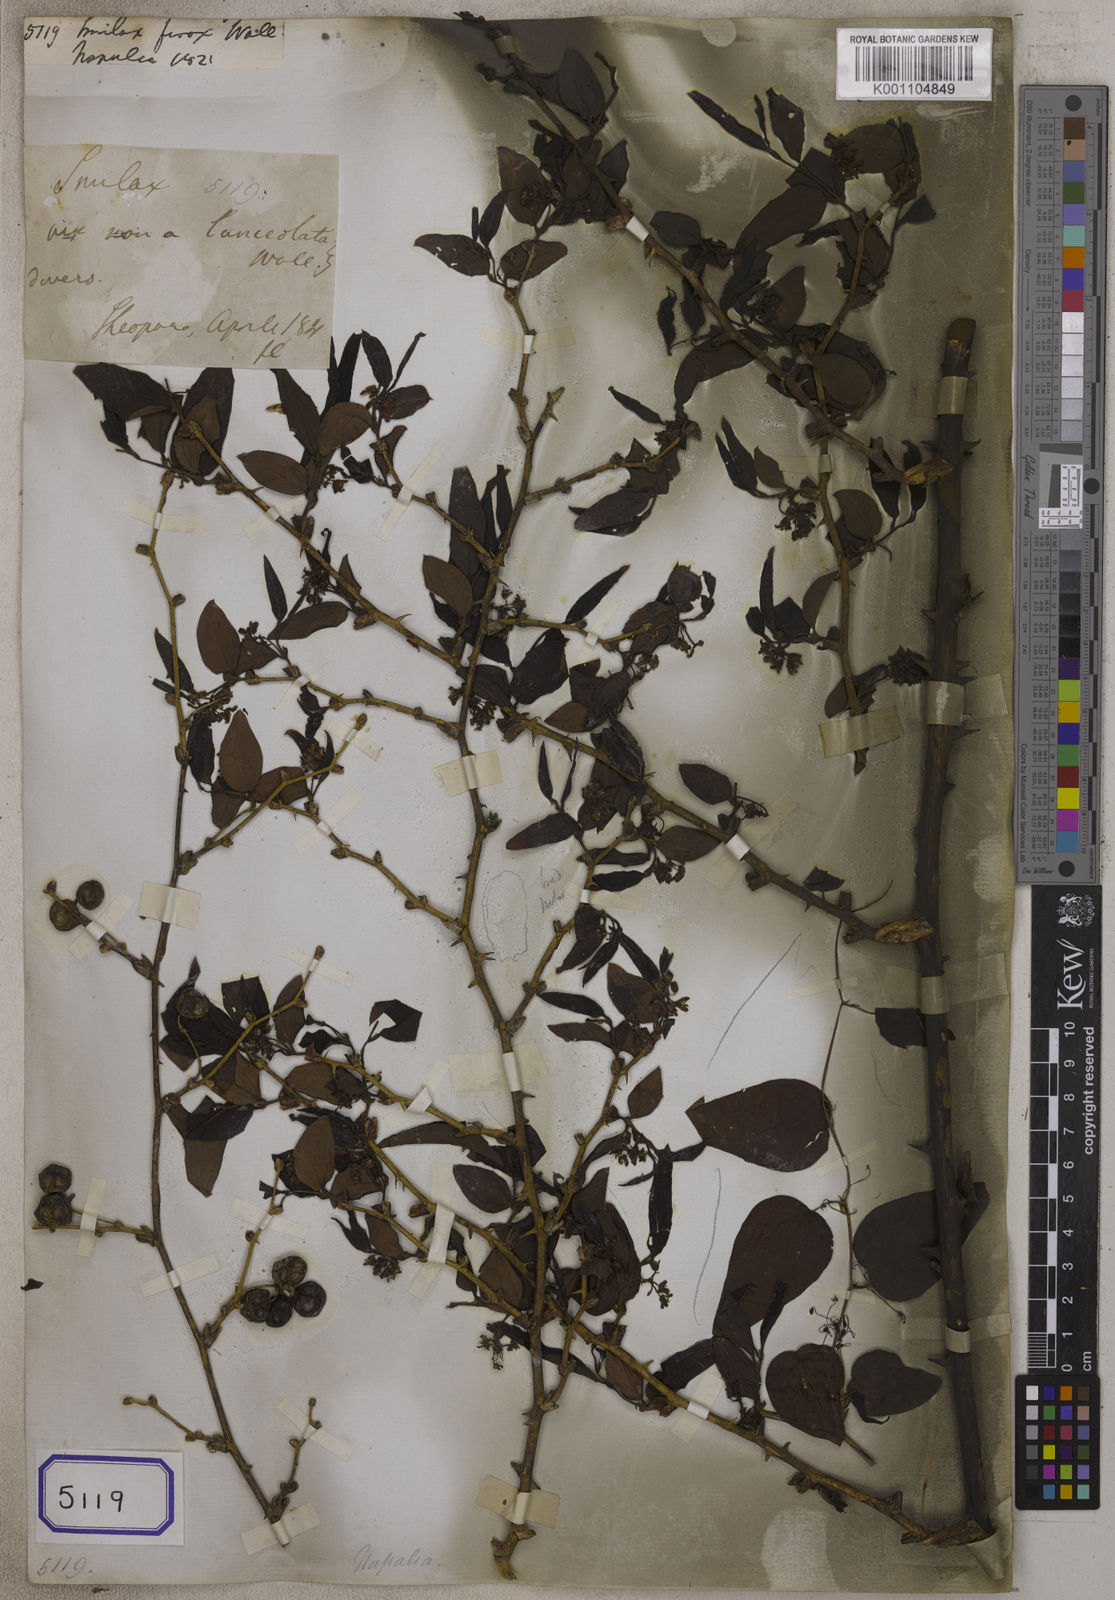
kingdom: Plantae
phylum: Tracheophyta
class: Liliopsida
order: Liliales
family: Smilacaceae
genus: Smilax
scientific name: Smilax
